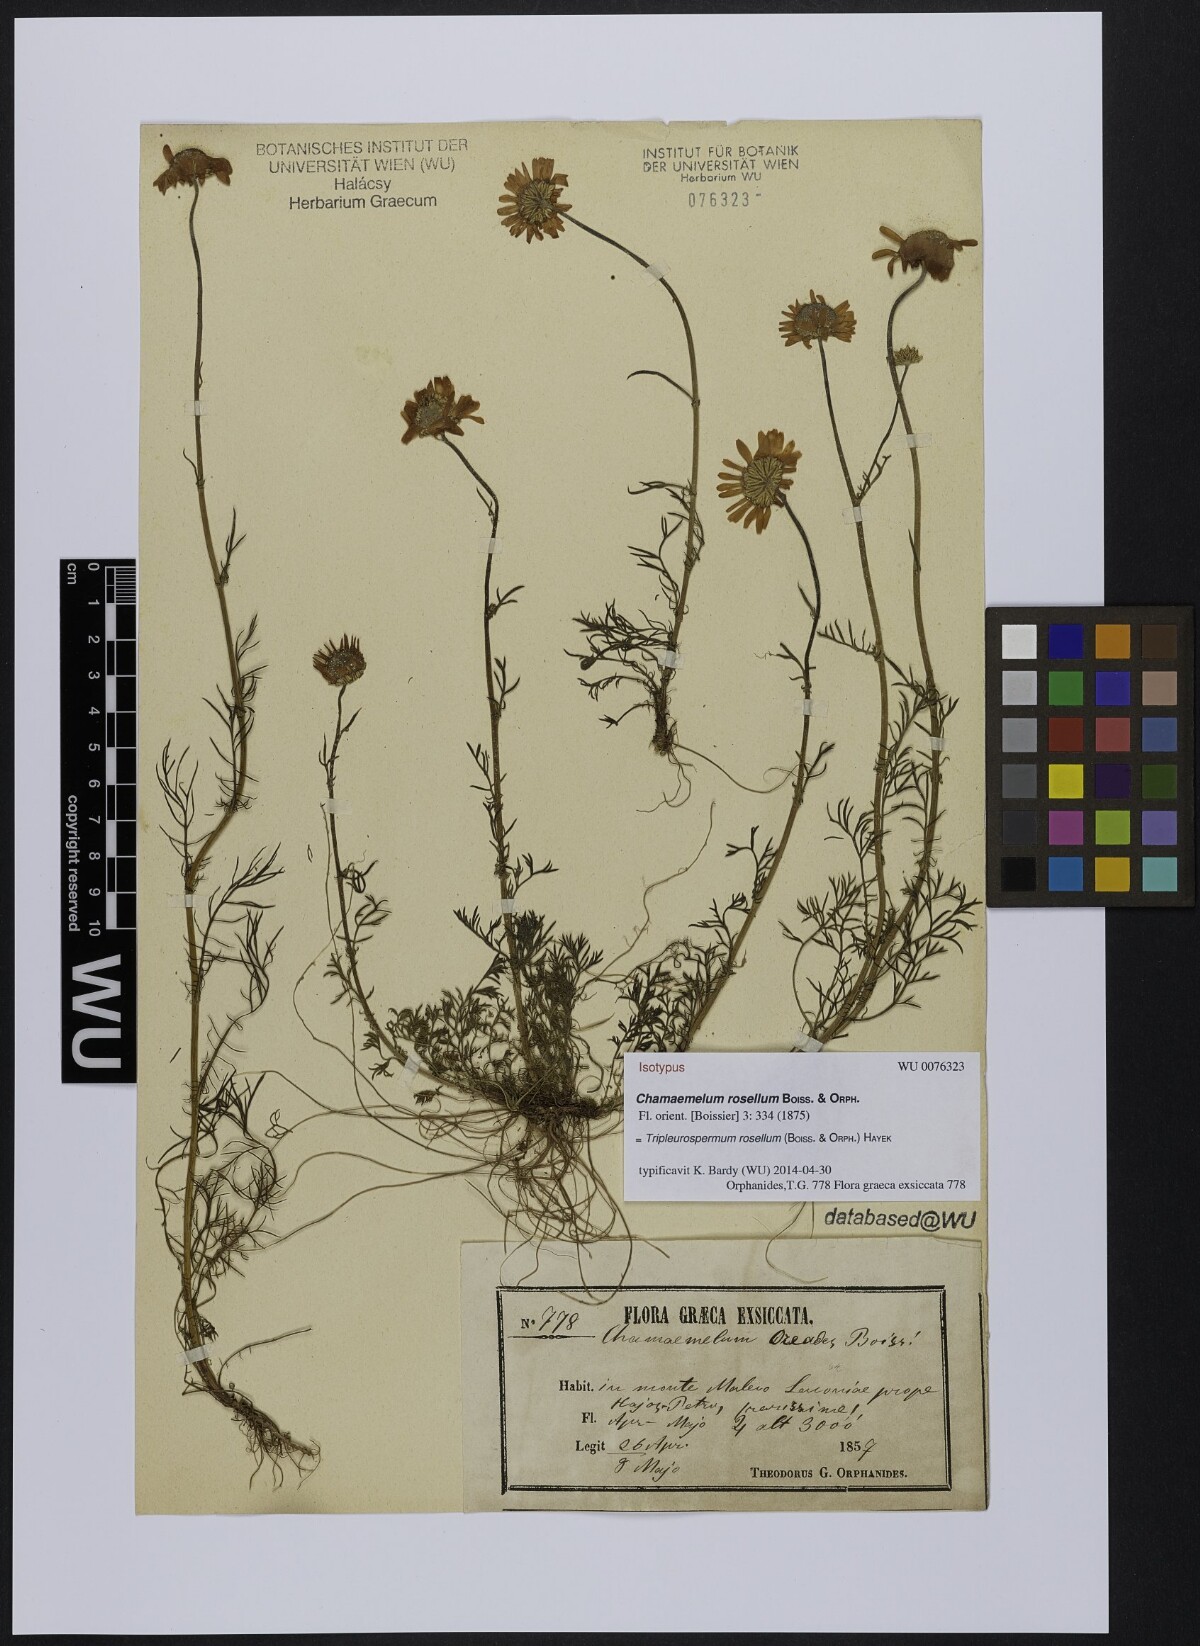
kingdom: Plantae
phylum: Tracheophyta
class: Magnoliopsida
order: Asterales
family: Asteraceae
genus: Tripleurospermum
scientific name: Tripleurospermum rosellum
